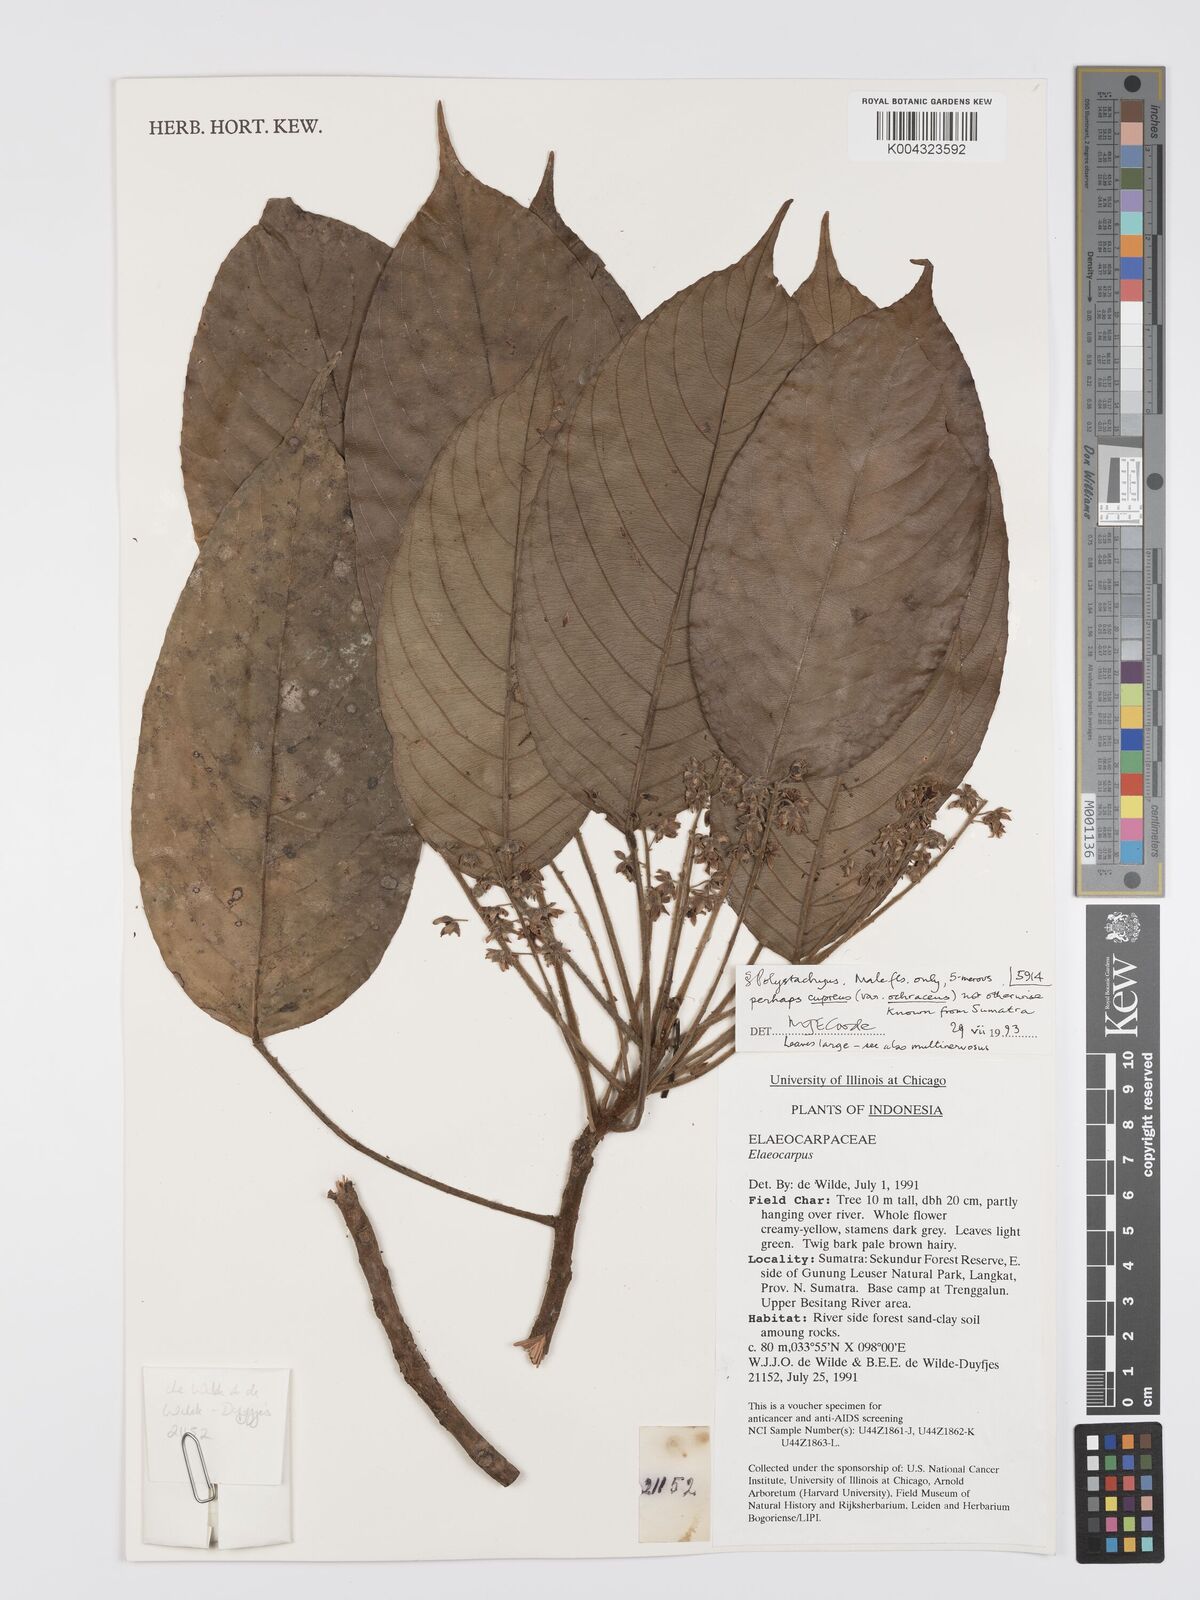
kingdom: Plantae
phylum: Tracheophyta
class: Magnoliopsida
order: Oxalidales
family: Elaeocarpaceae
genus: Elaeocarpus
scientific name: Elaeocarpus cupreus
